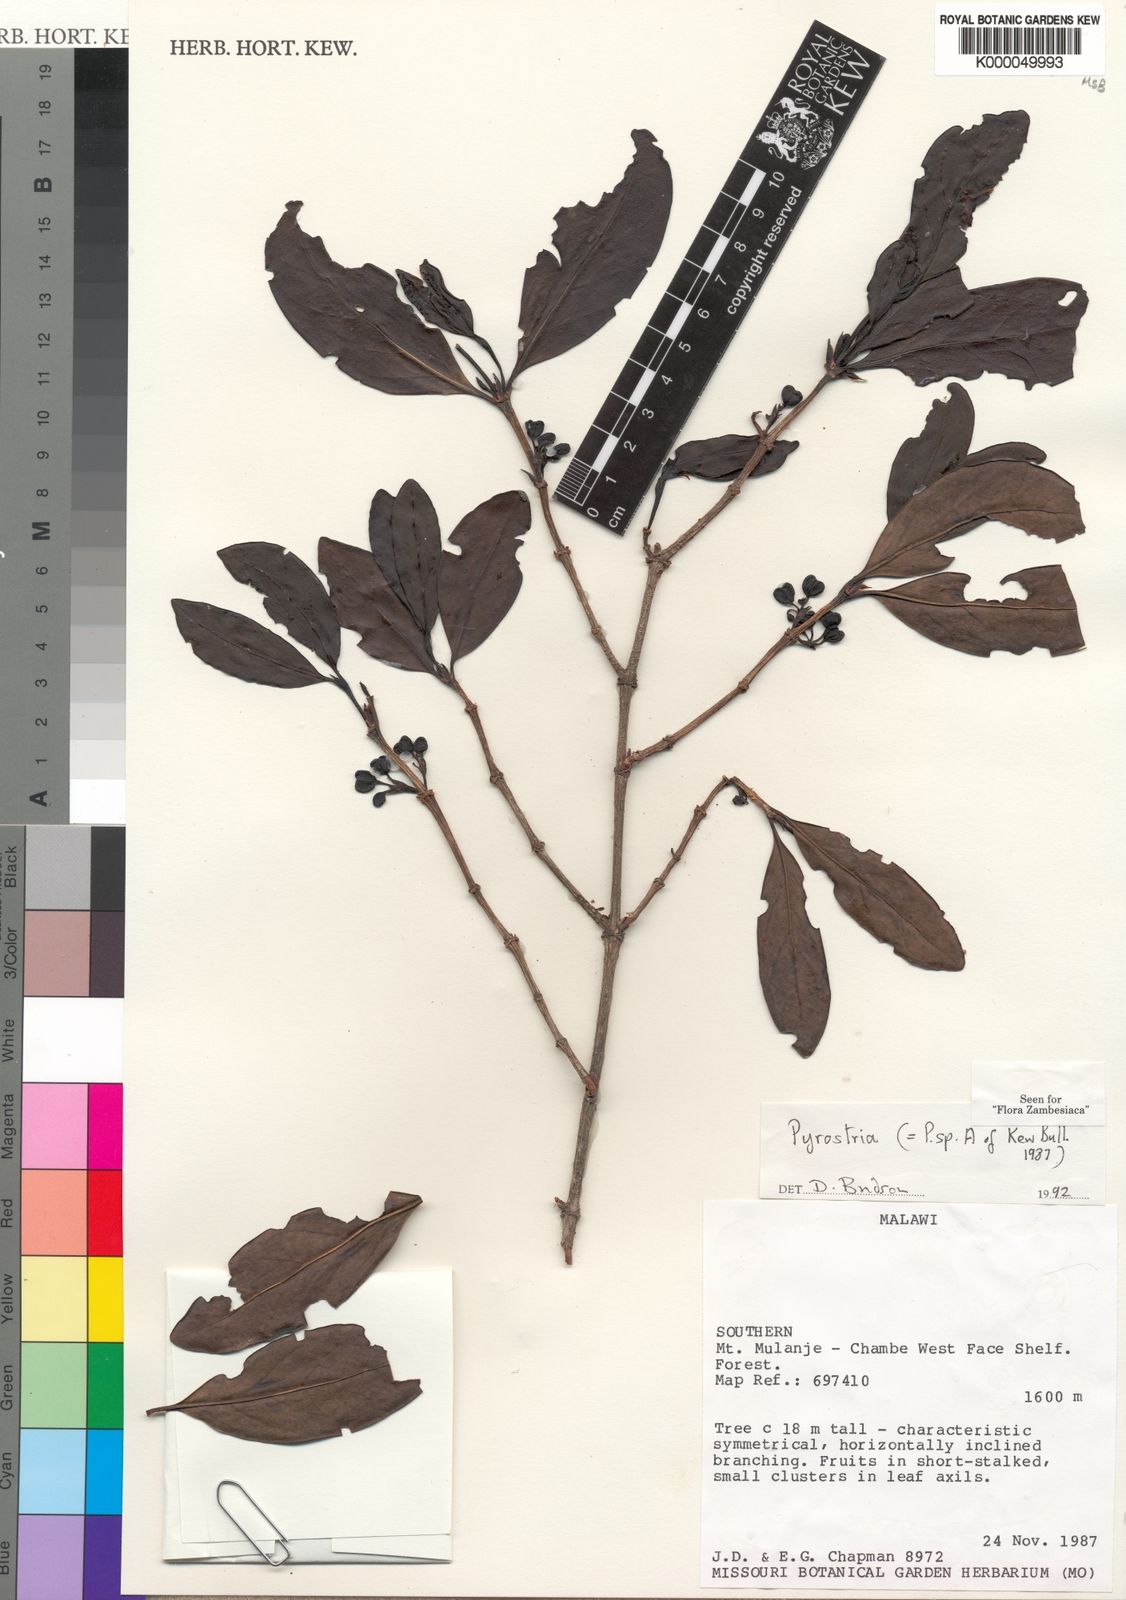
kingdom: Plantae
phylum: Tracheophyta
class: Magnoliopsida
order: Gentianales
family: Rubiaceae
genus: Pyrostria
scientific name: Pyrostria chapmanii
